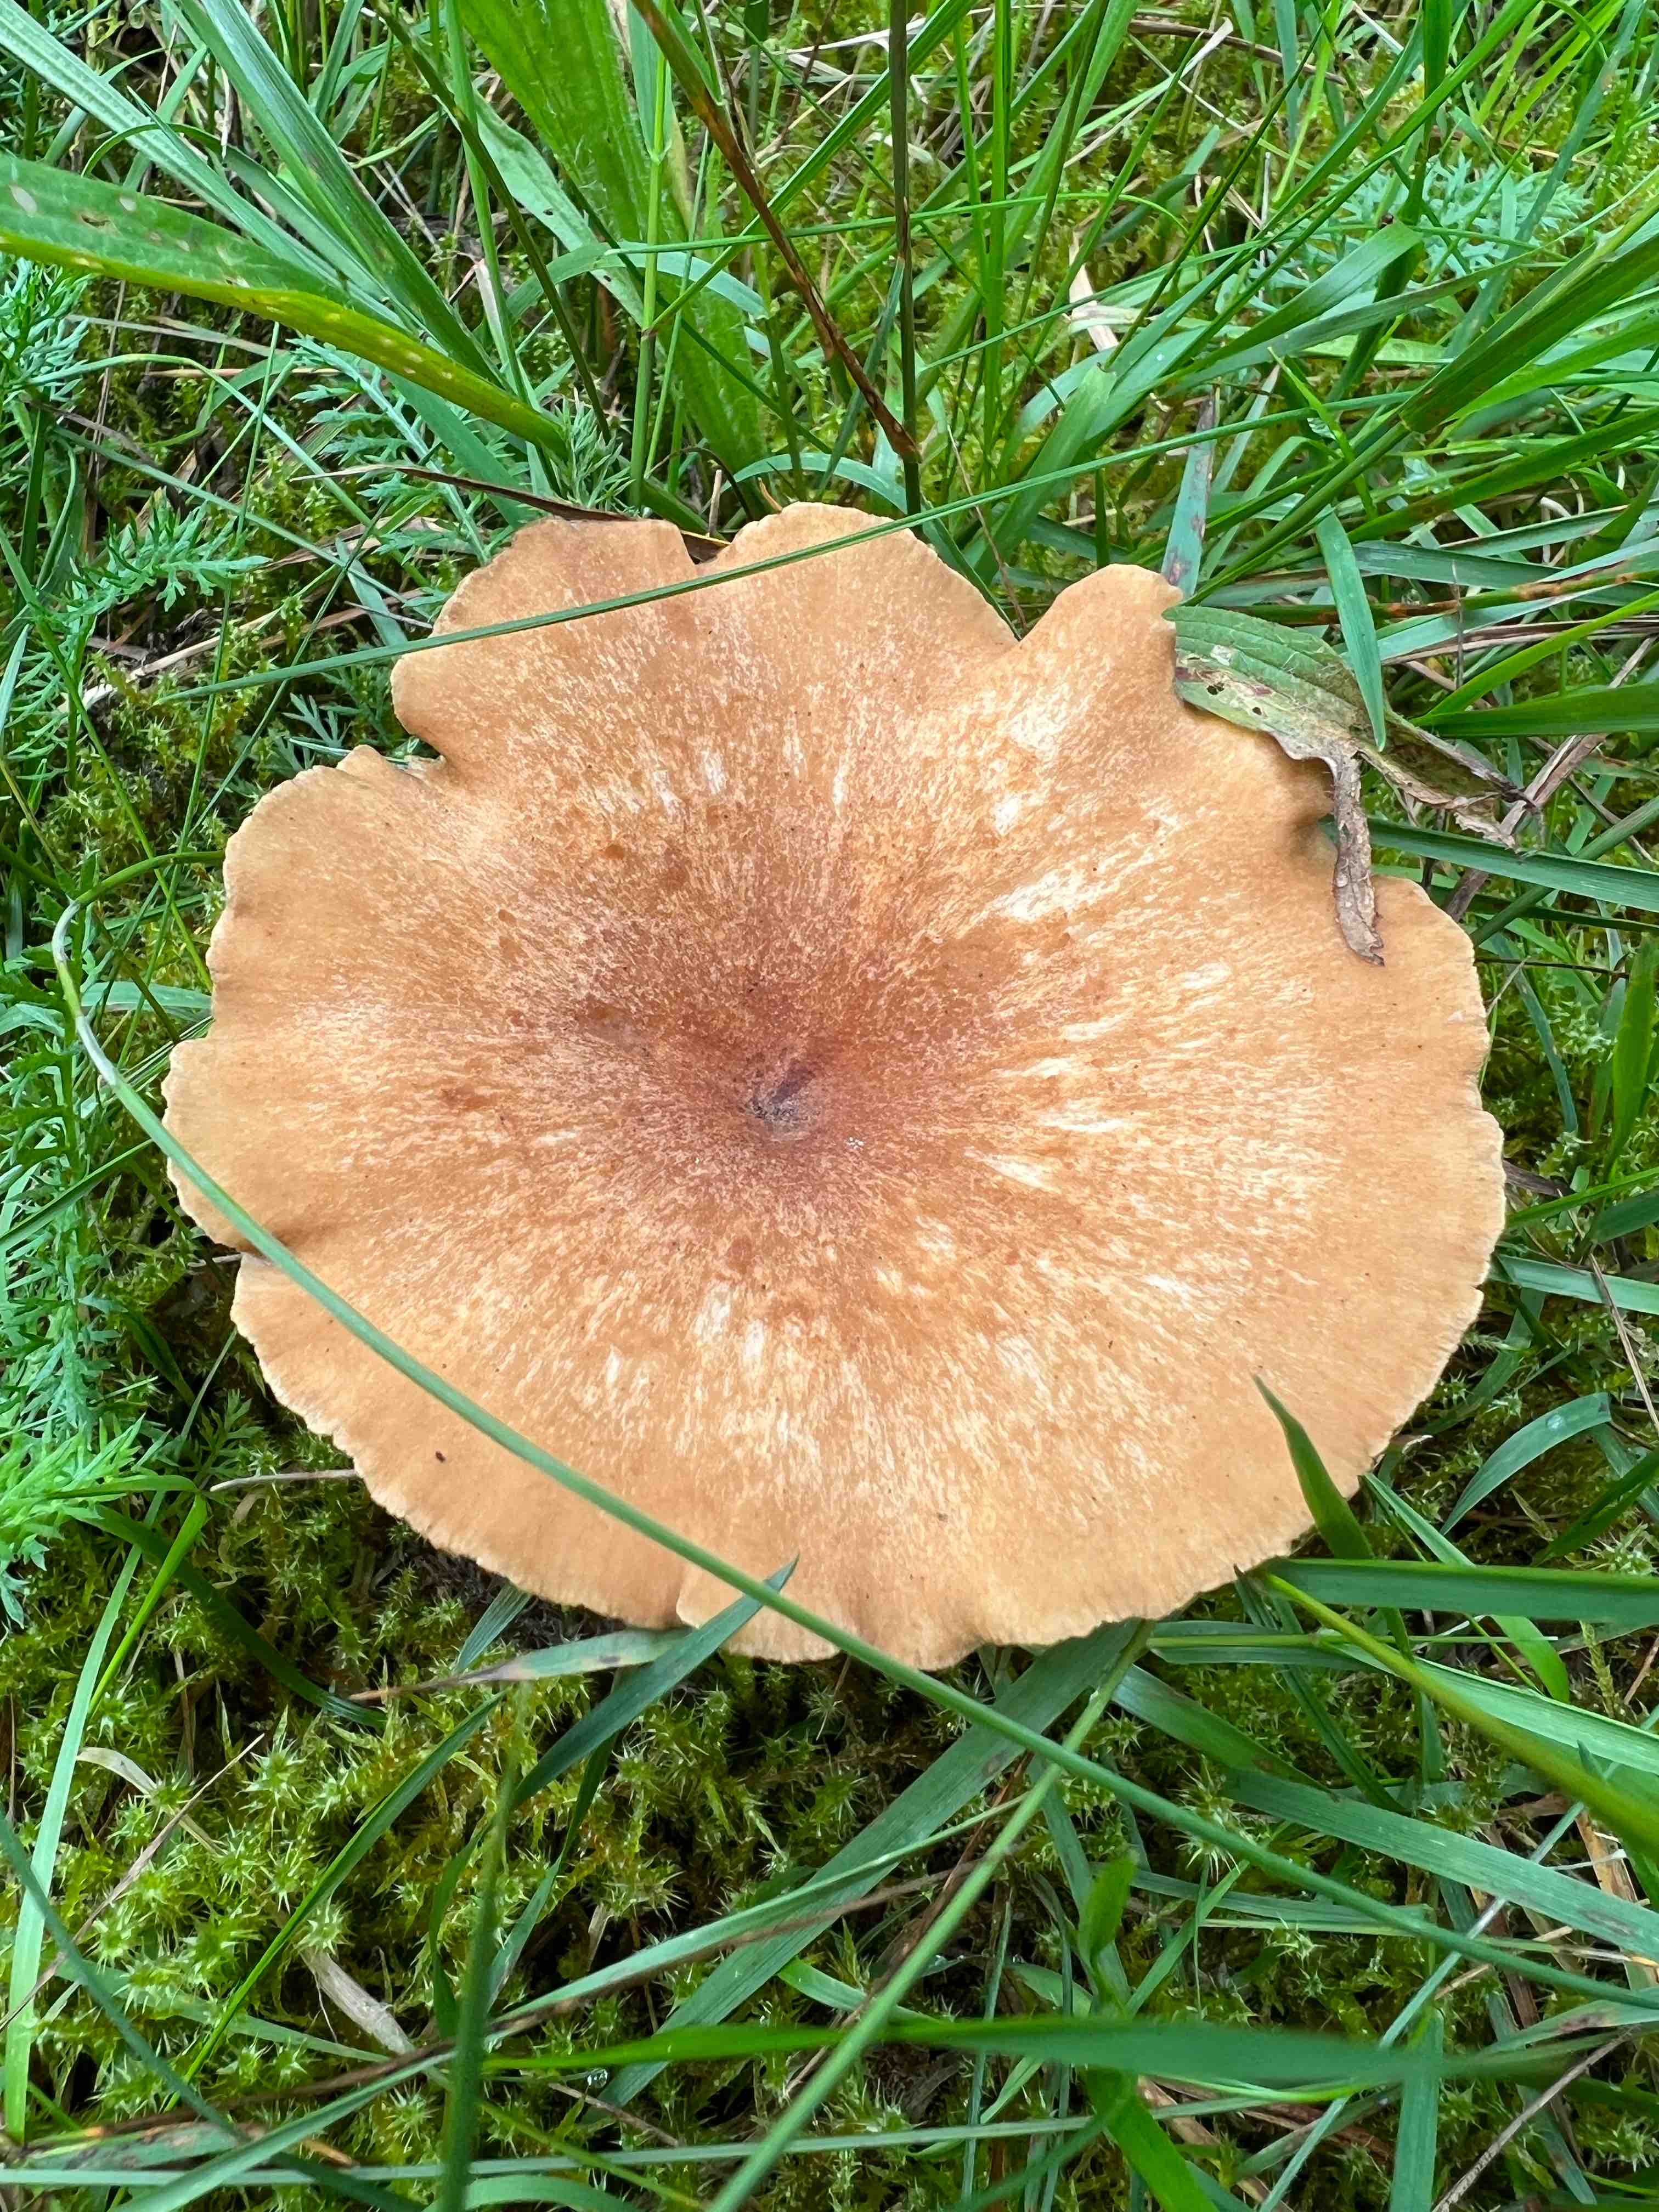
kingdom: Fungi
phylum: Basidiomycota
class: Agaricomycetes
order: Agaricales
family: Tricholomataceae
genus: Clitocybe
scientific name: Clitocybe costata
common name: brunstokket tragthat
